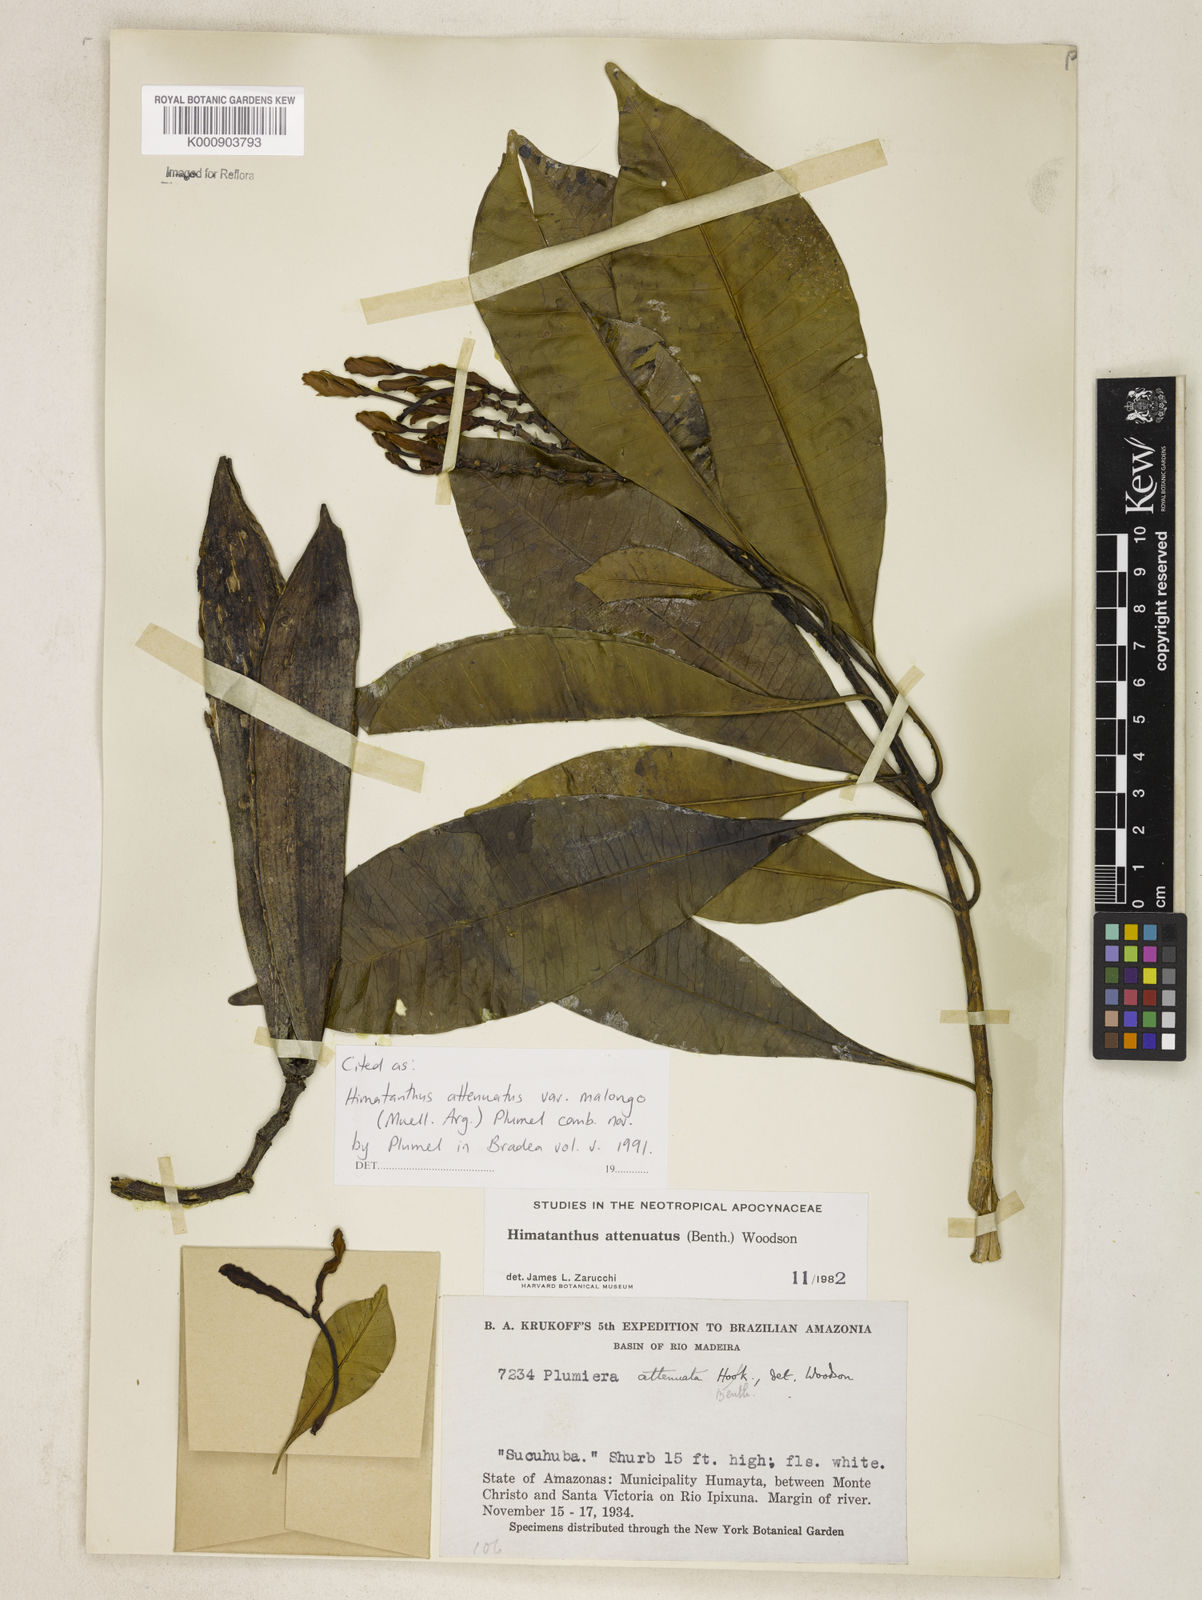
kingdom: Plantae
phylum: Tracheophyta
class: Magnoliopsida
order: Gentianales
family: Apocynaceae
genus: Himatanthus
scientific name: Himatanthus
